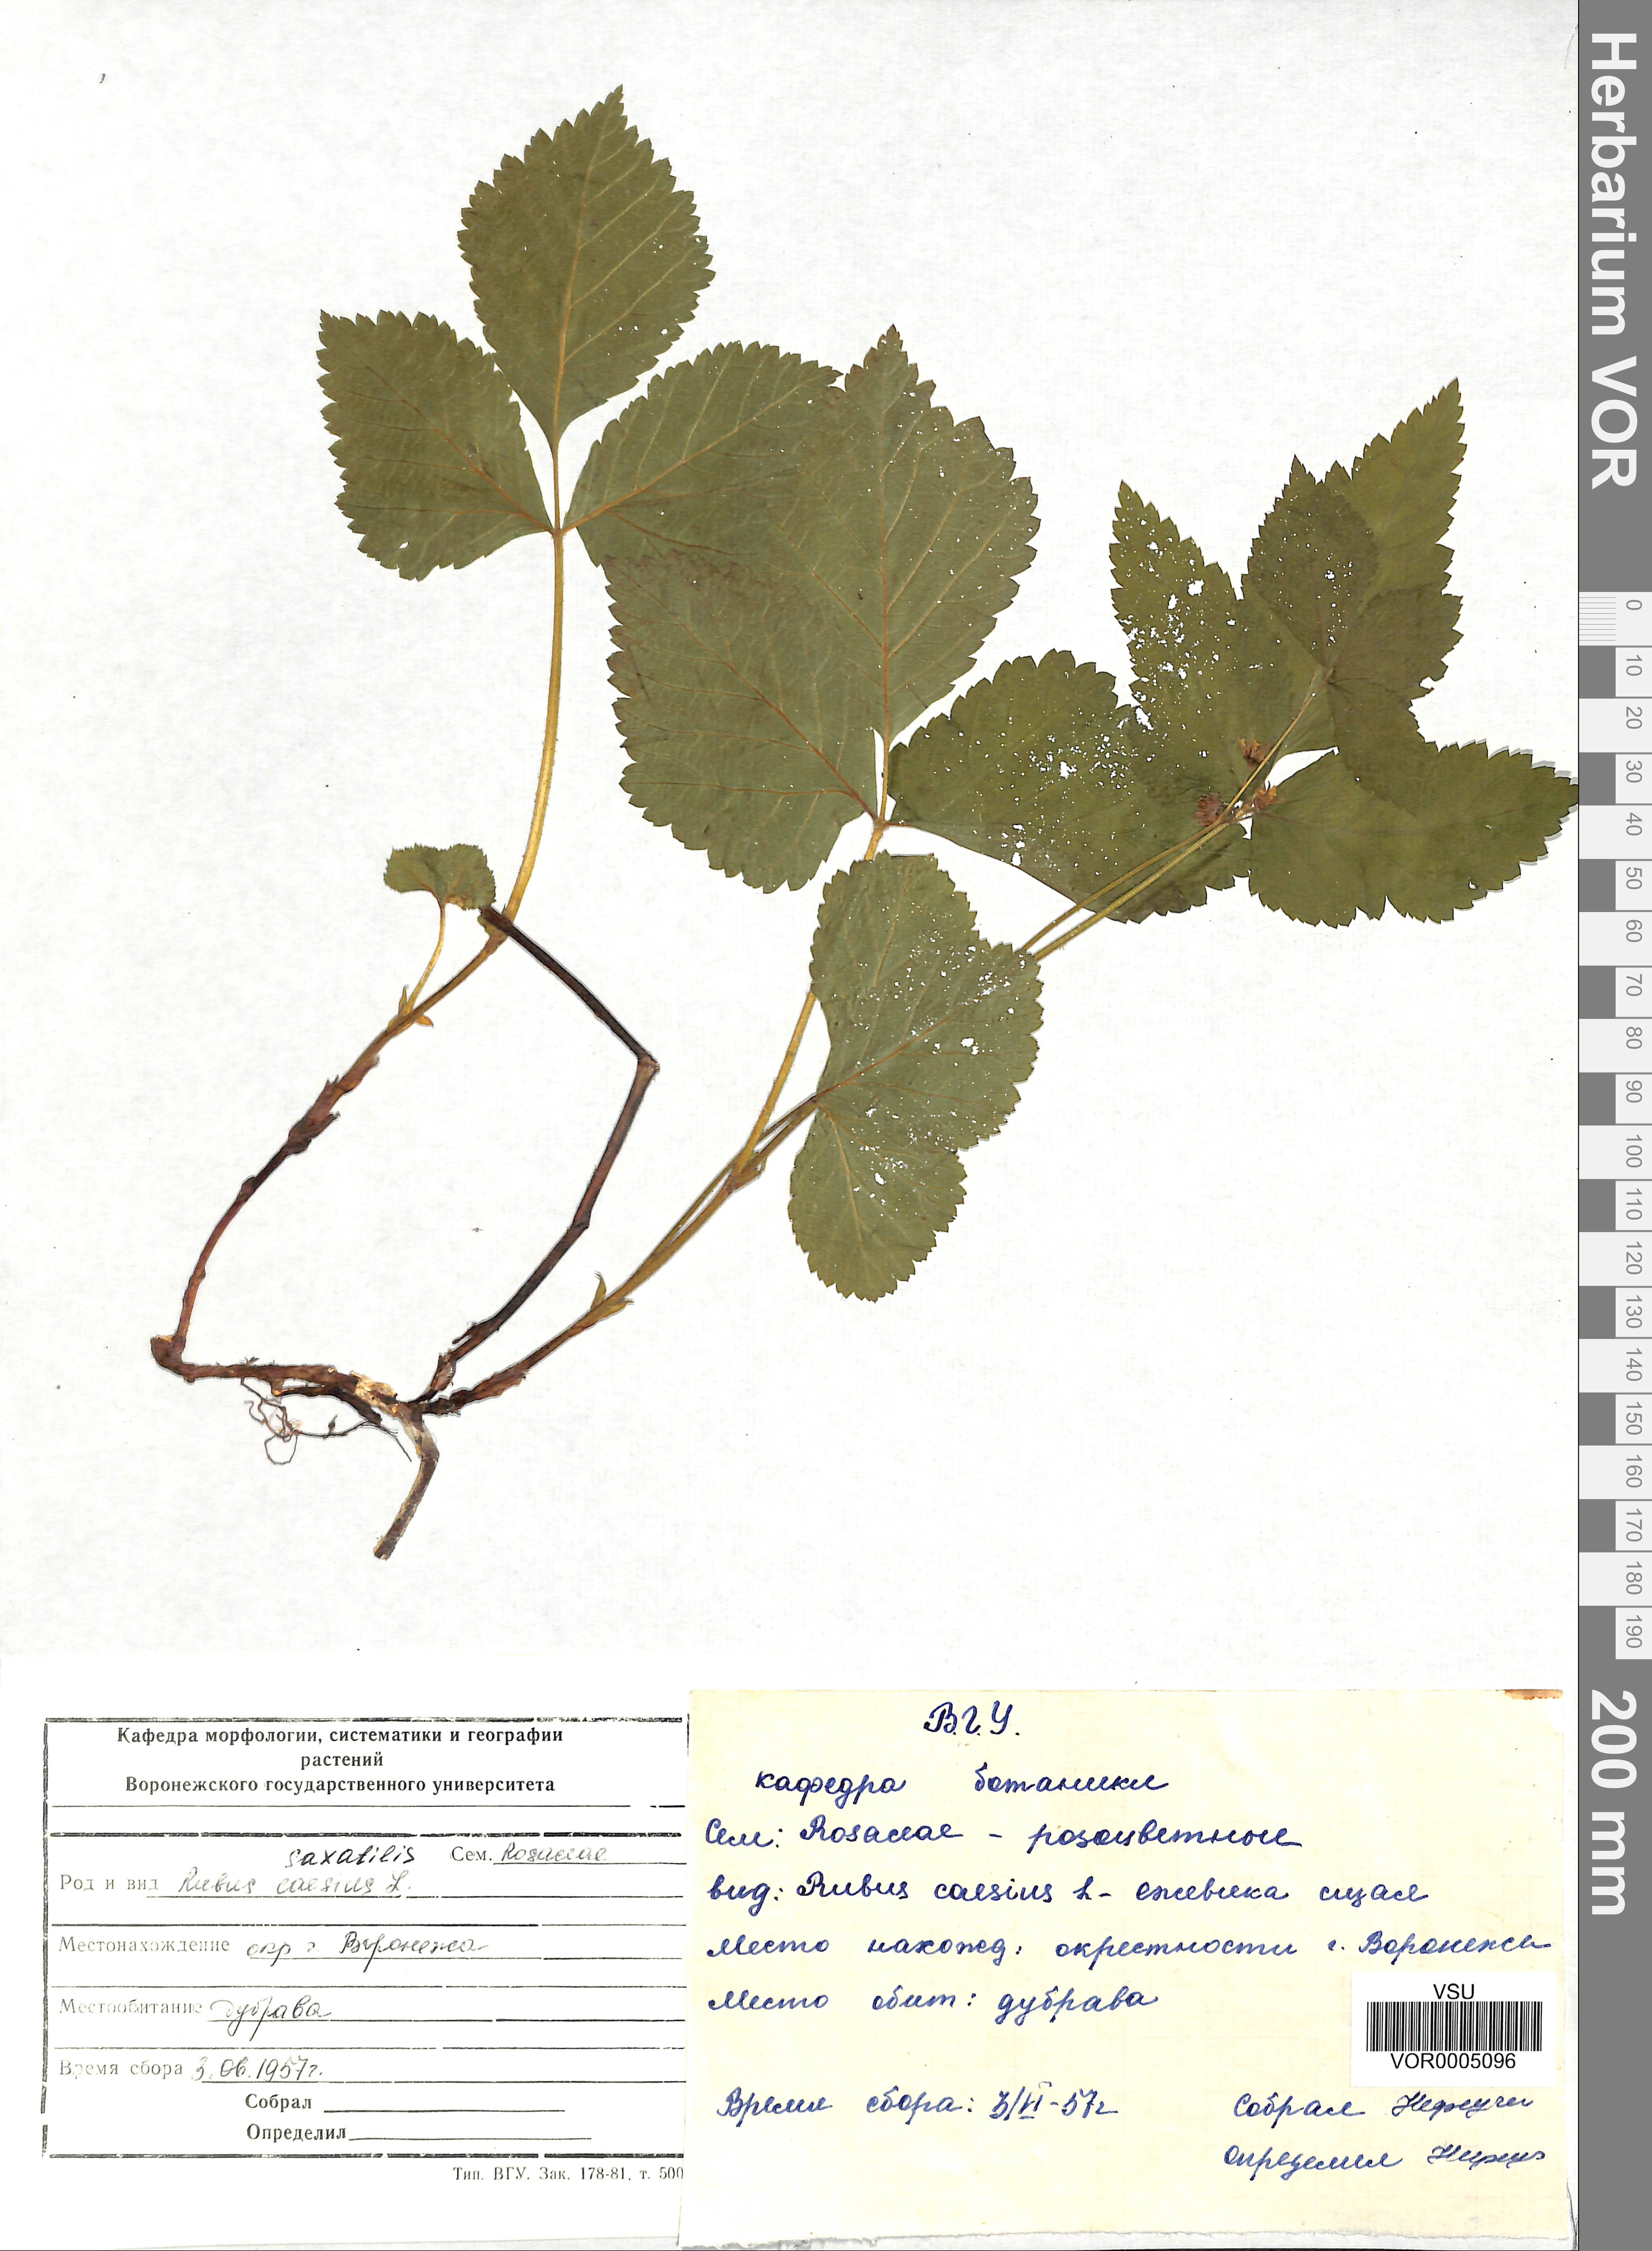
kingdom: Plantae
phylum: Tracheophyta
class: Magnoliopsida
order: Rosales
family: Rosaceae
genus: Rubus
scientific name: Rubus saxatilis
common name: Stone bramble
